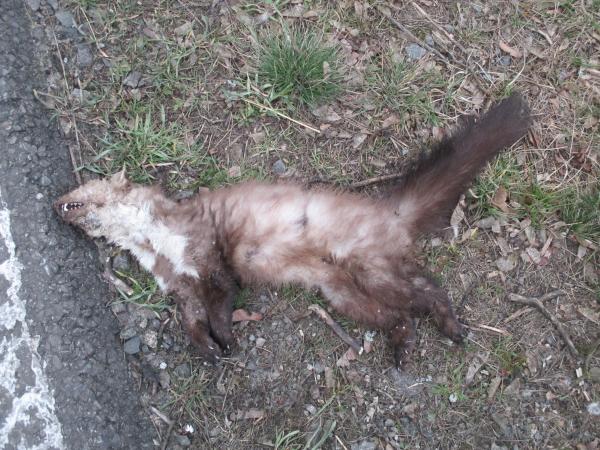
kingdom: Animalia
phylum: Chordata
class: Mammalia
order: Carnivora
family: Mustelidae
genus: Martes
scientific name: Martes foina
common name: Beech marten
